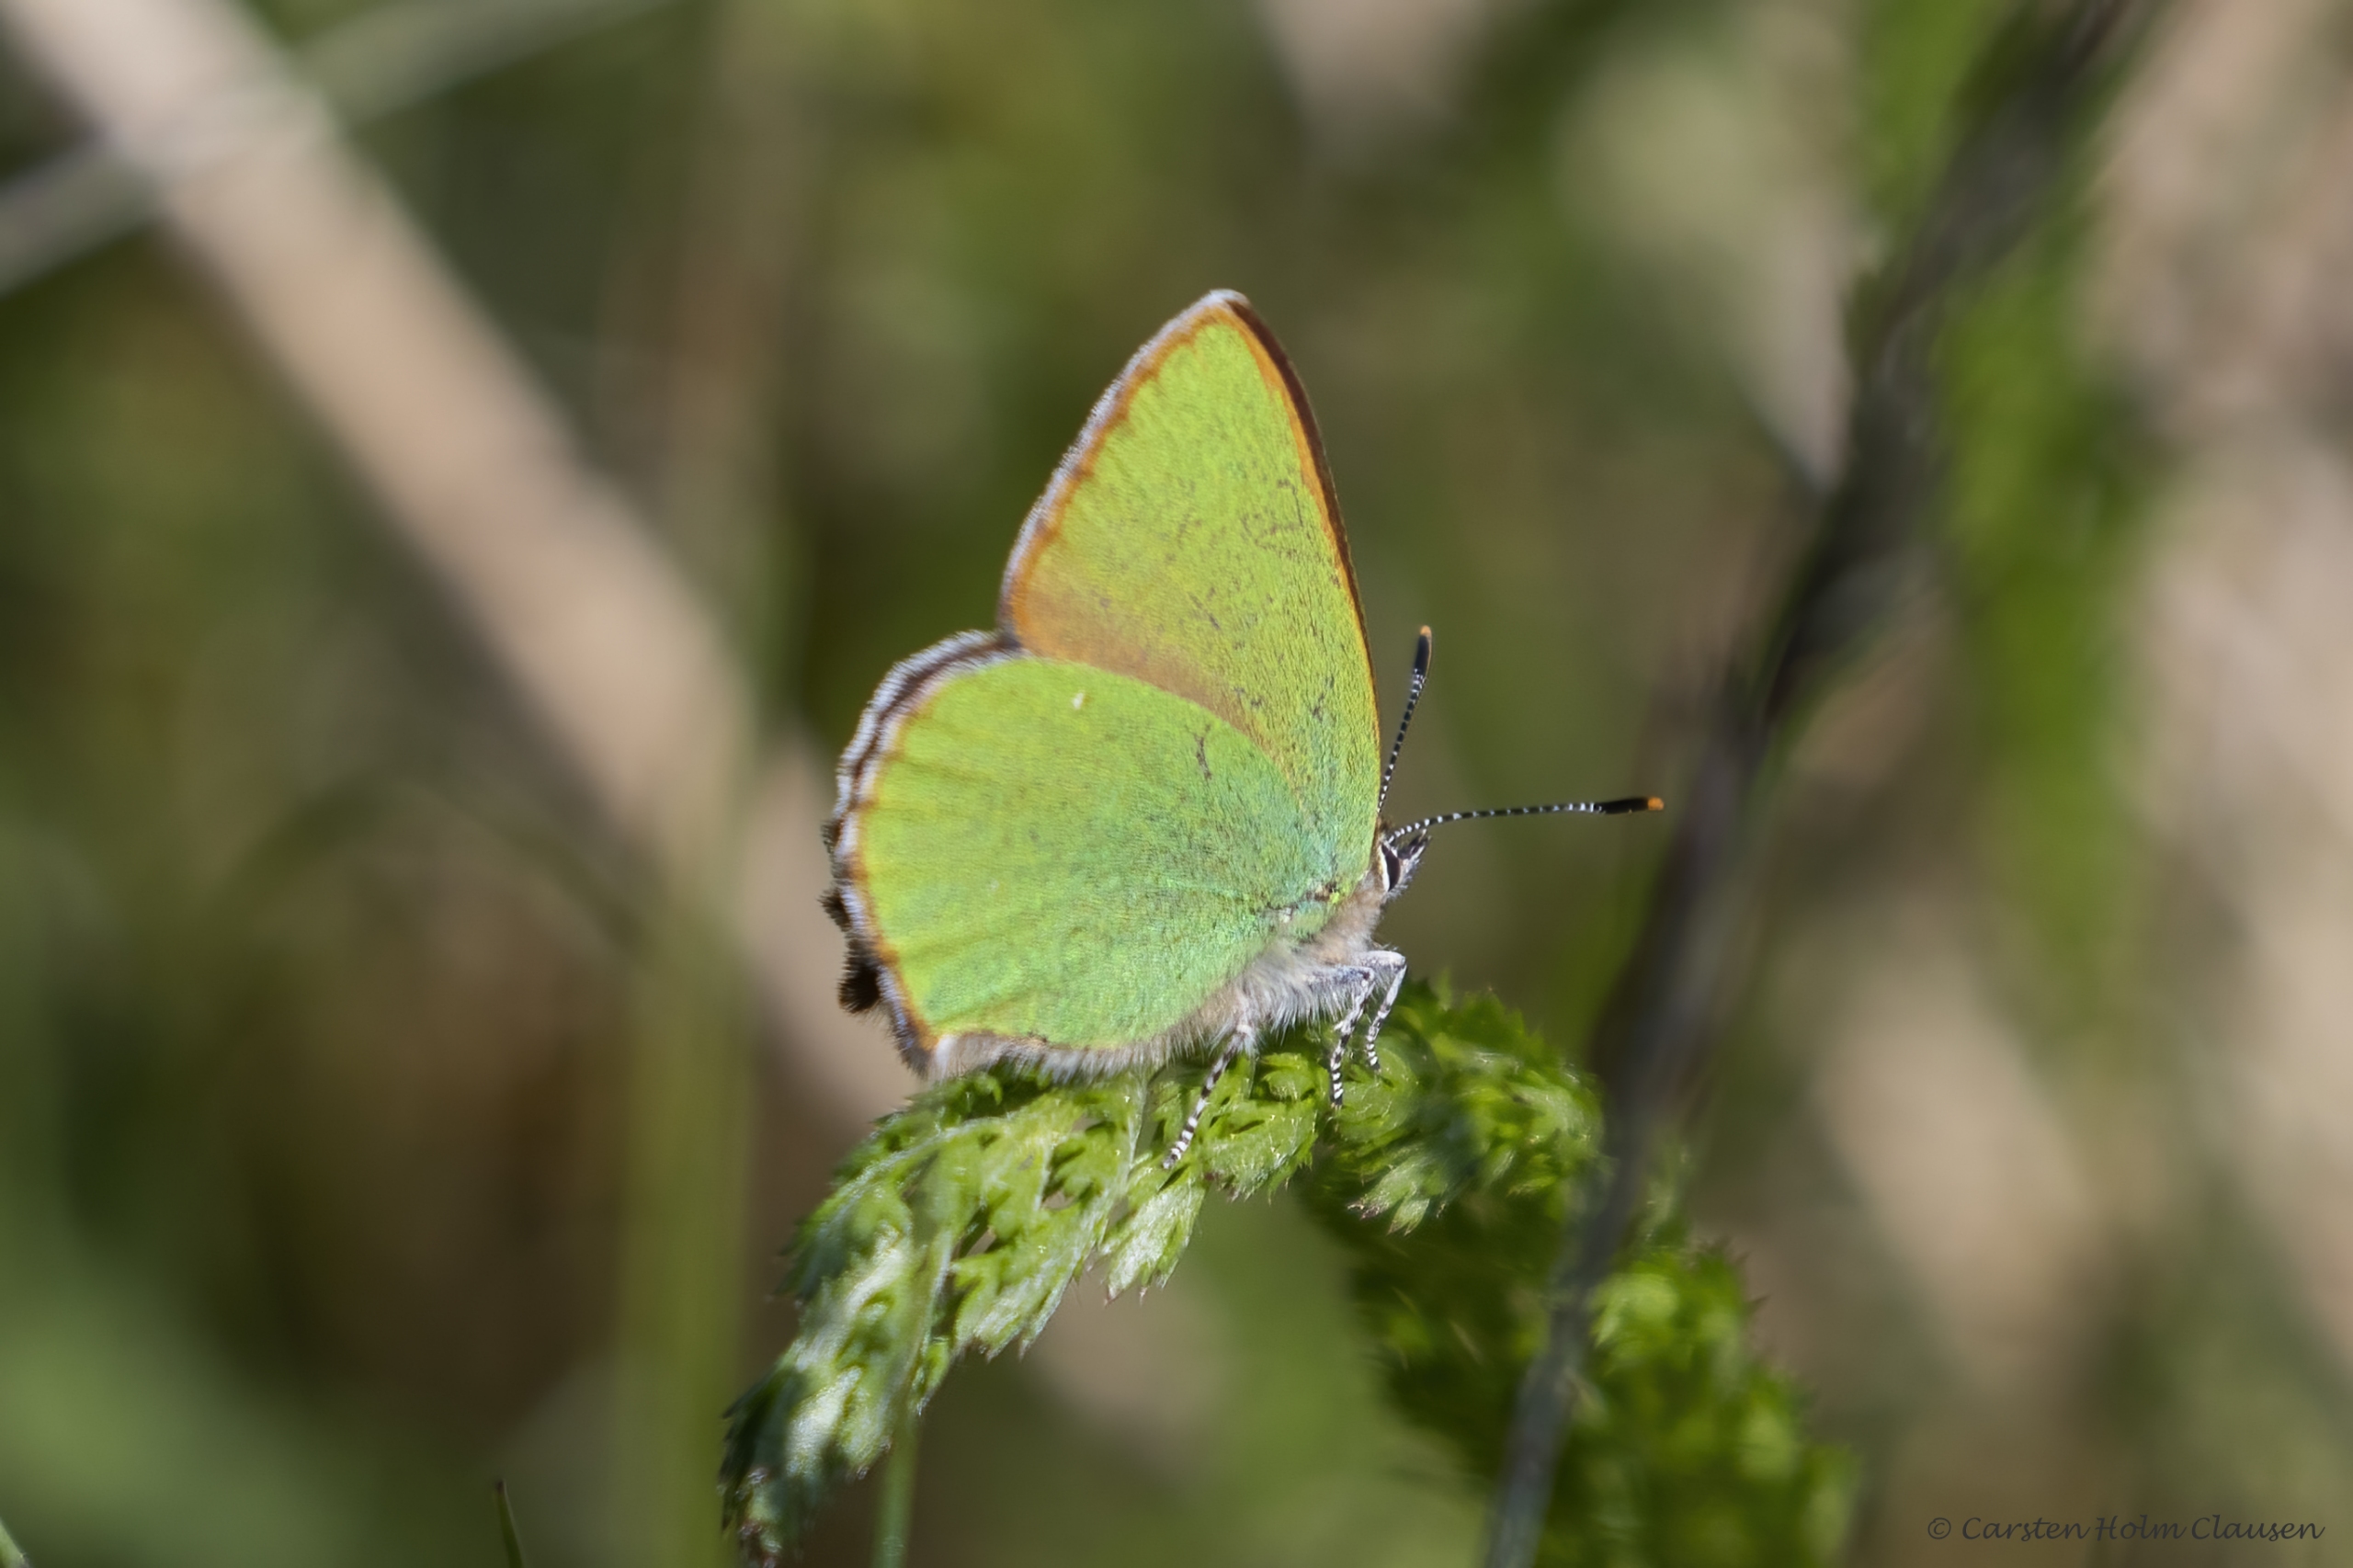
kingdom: Animalia
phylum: Arthropoda
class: Insecta
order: Lepidoptera
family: Lycaenidae
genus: Callophrys
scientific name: Callophrys rubi
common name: Grøn busksommerfugl
